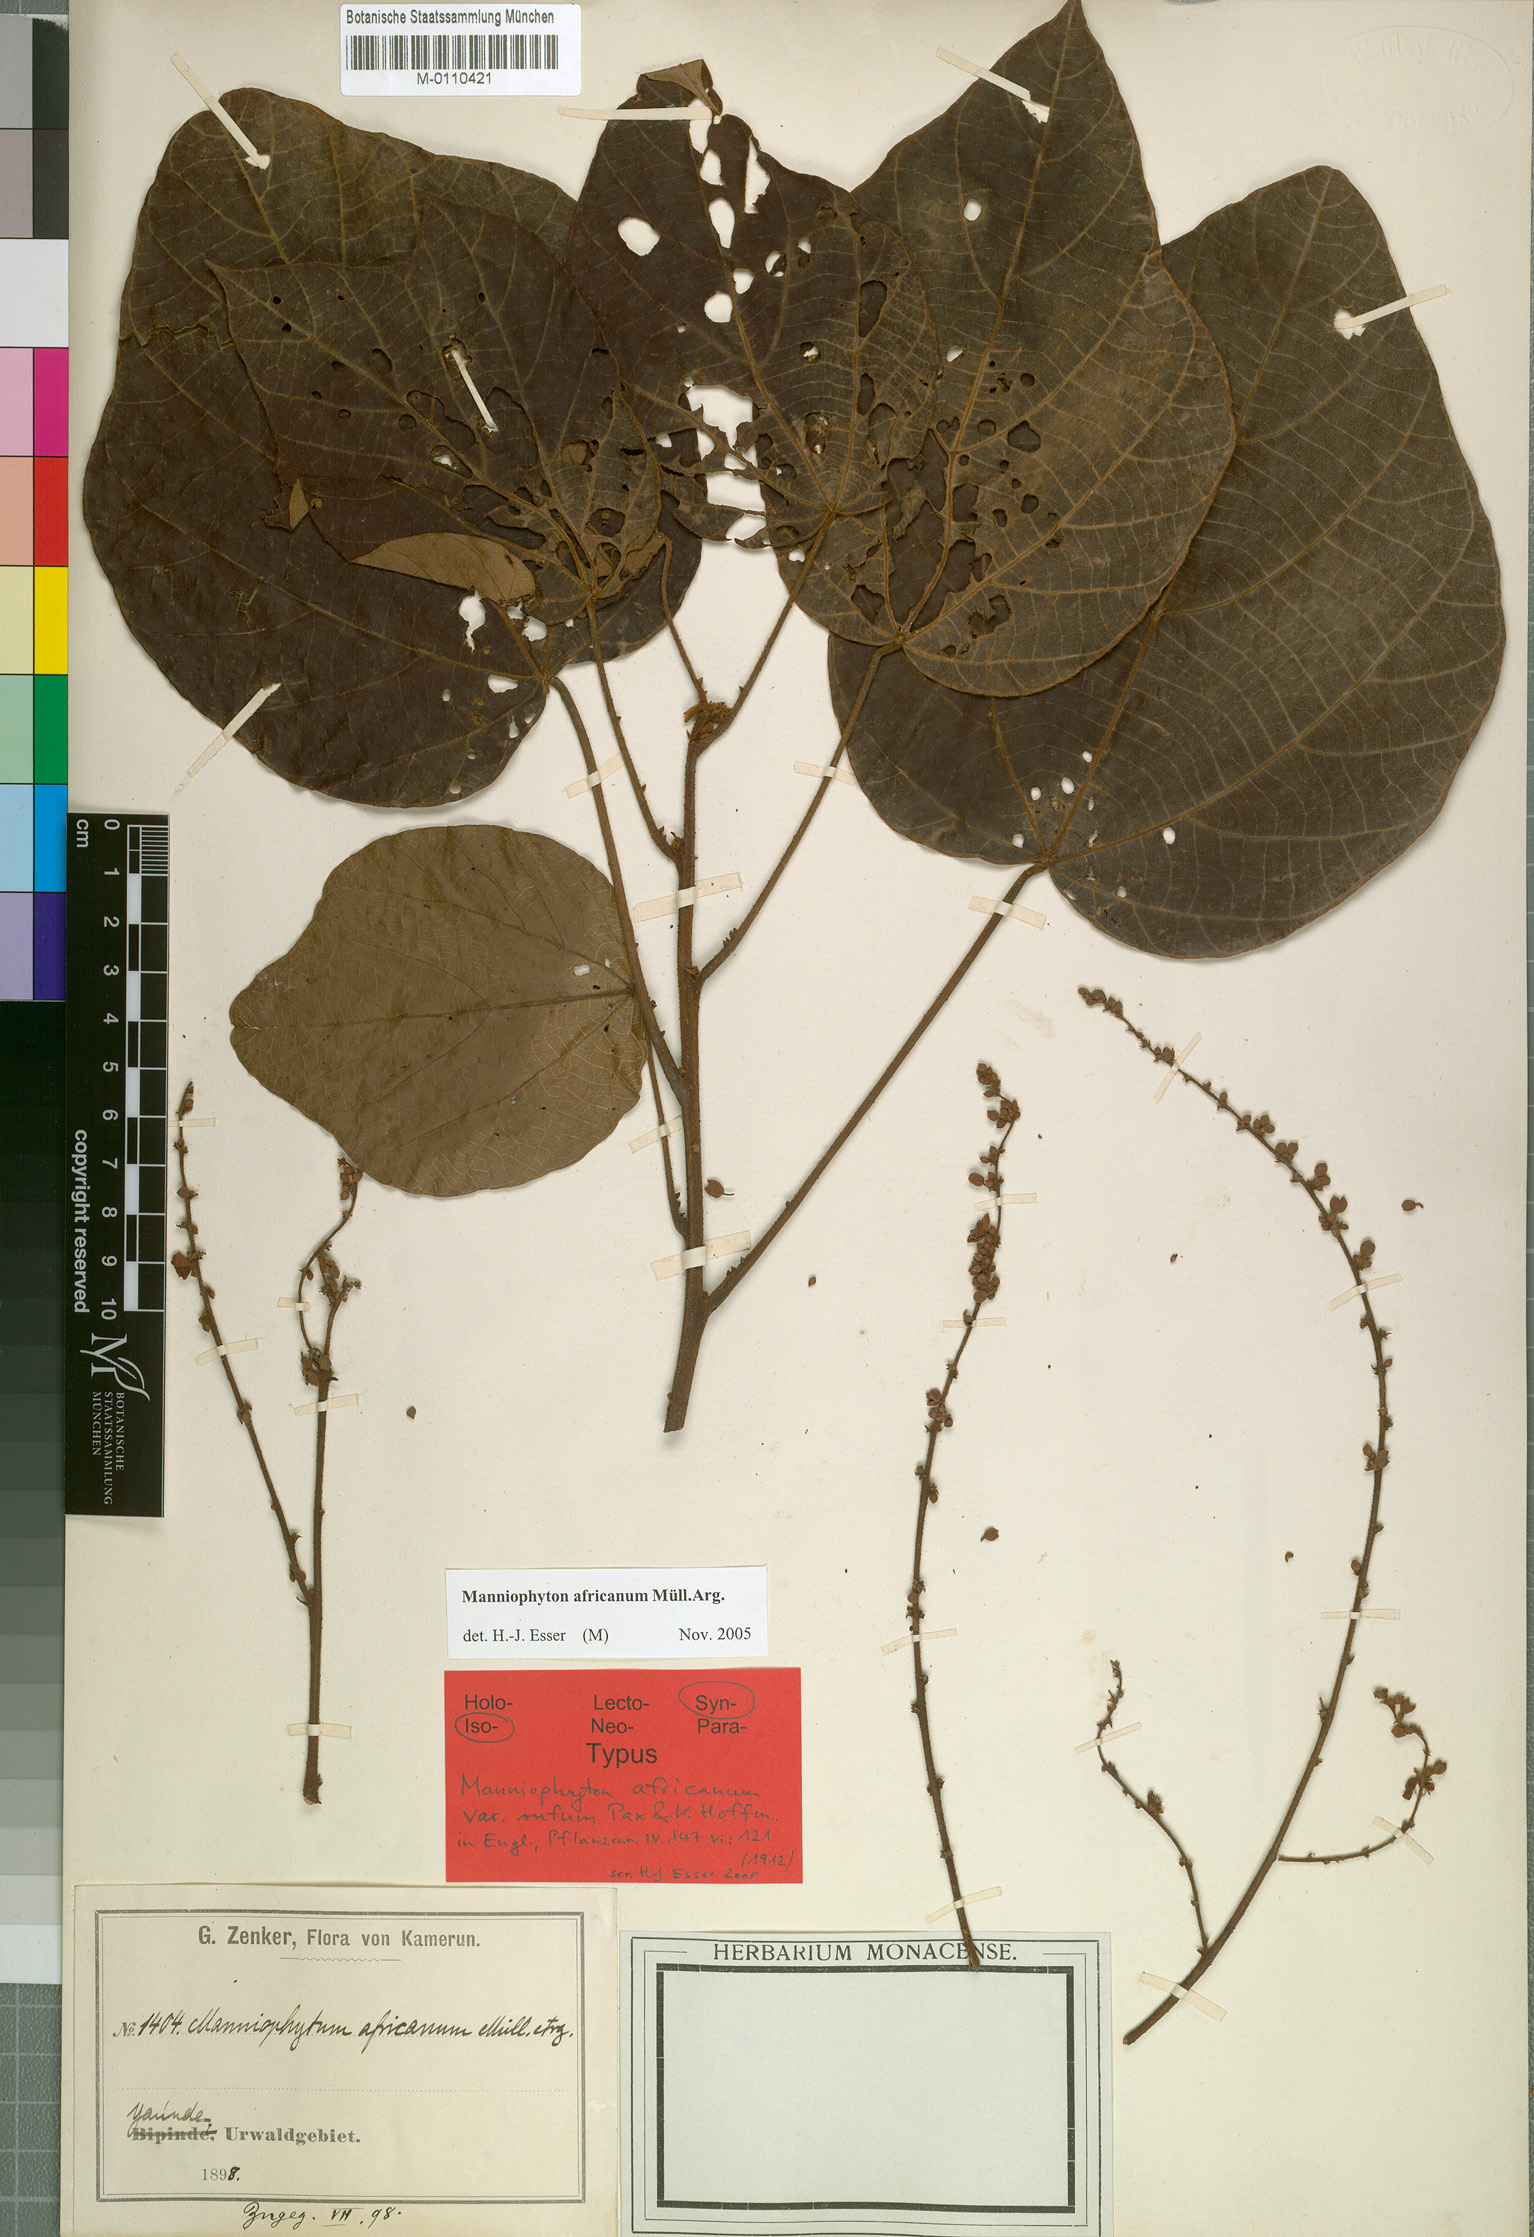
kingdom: Plantae
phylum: Tracheophyta
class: Magnoliopsida
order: Malpighiales
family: Euphorbiaceae
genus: Manniophyton
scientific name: Manniophyton fulvum
